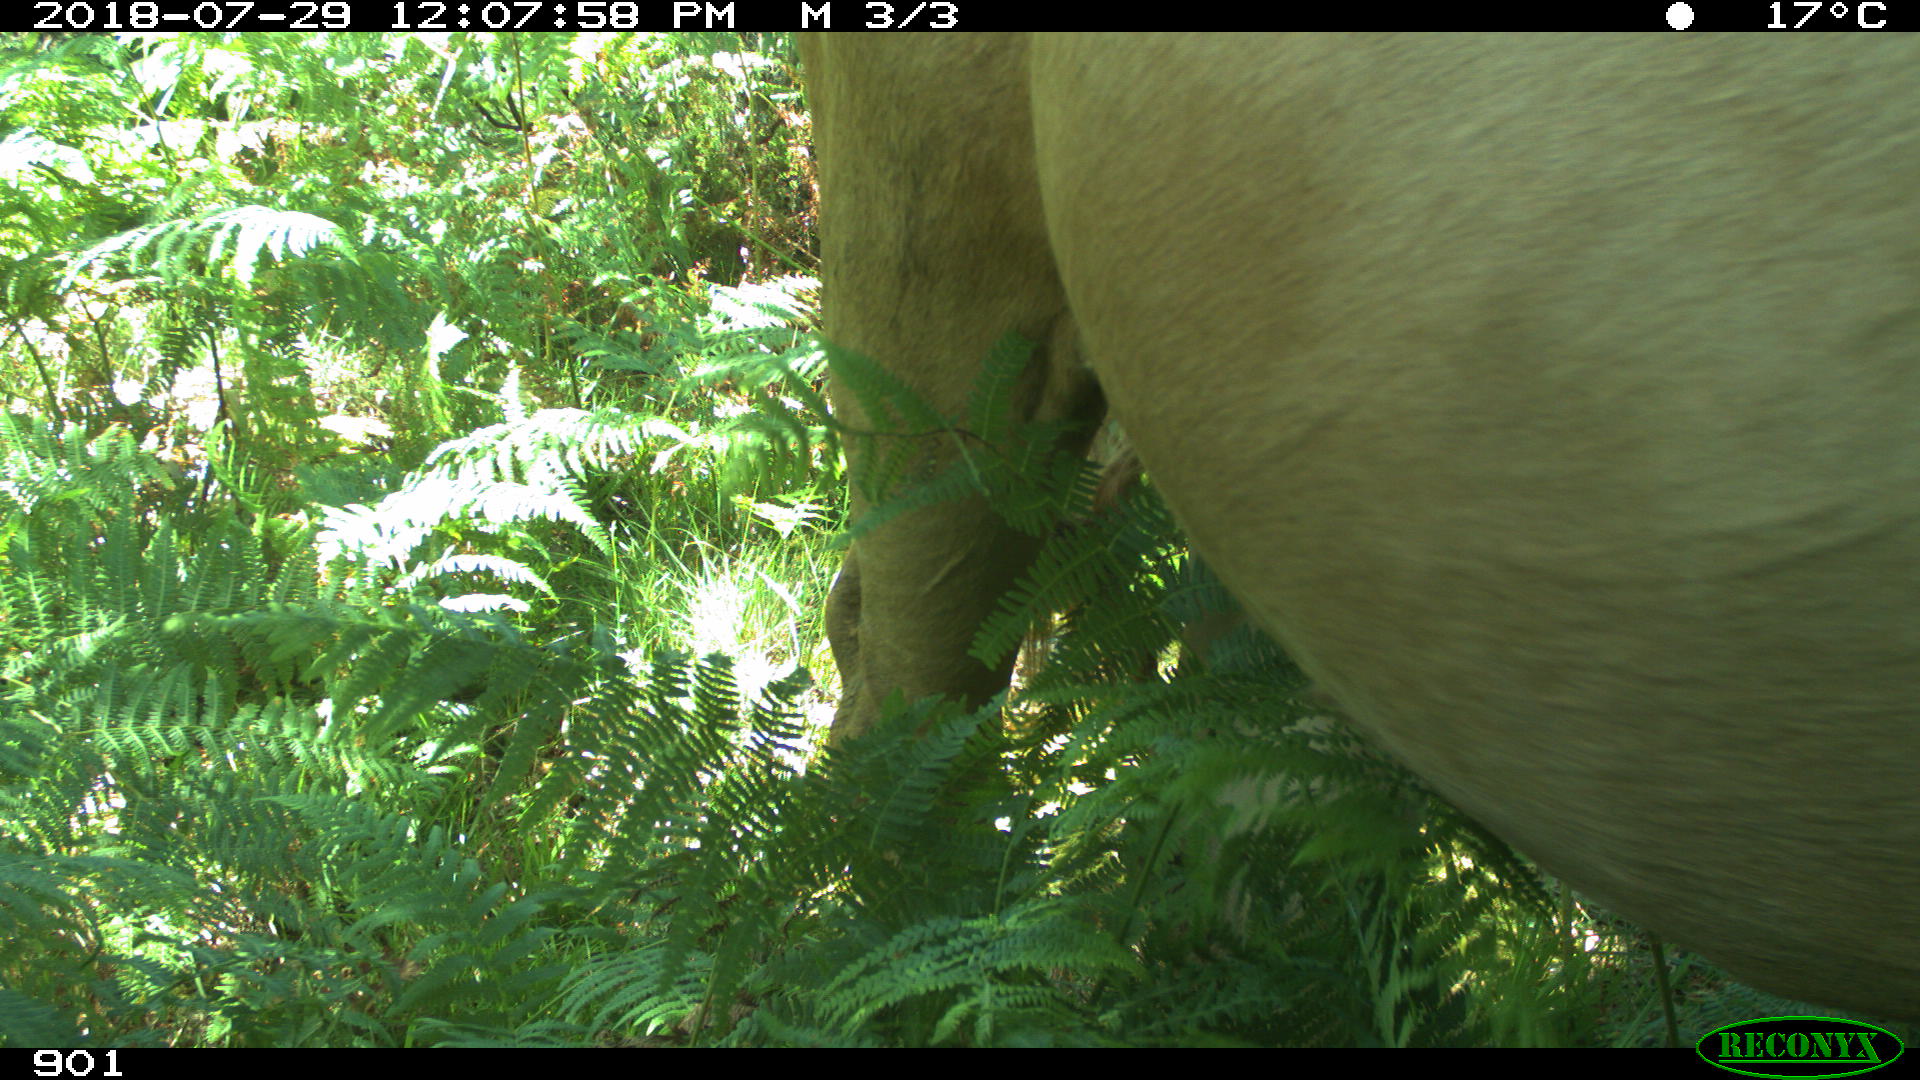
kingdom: Animalia
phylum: Chordata
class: Mammalia
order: Artiodactyla
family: Bovidae
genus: Bos
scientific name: Bos taurus
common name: Domesticated cattle
